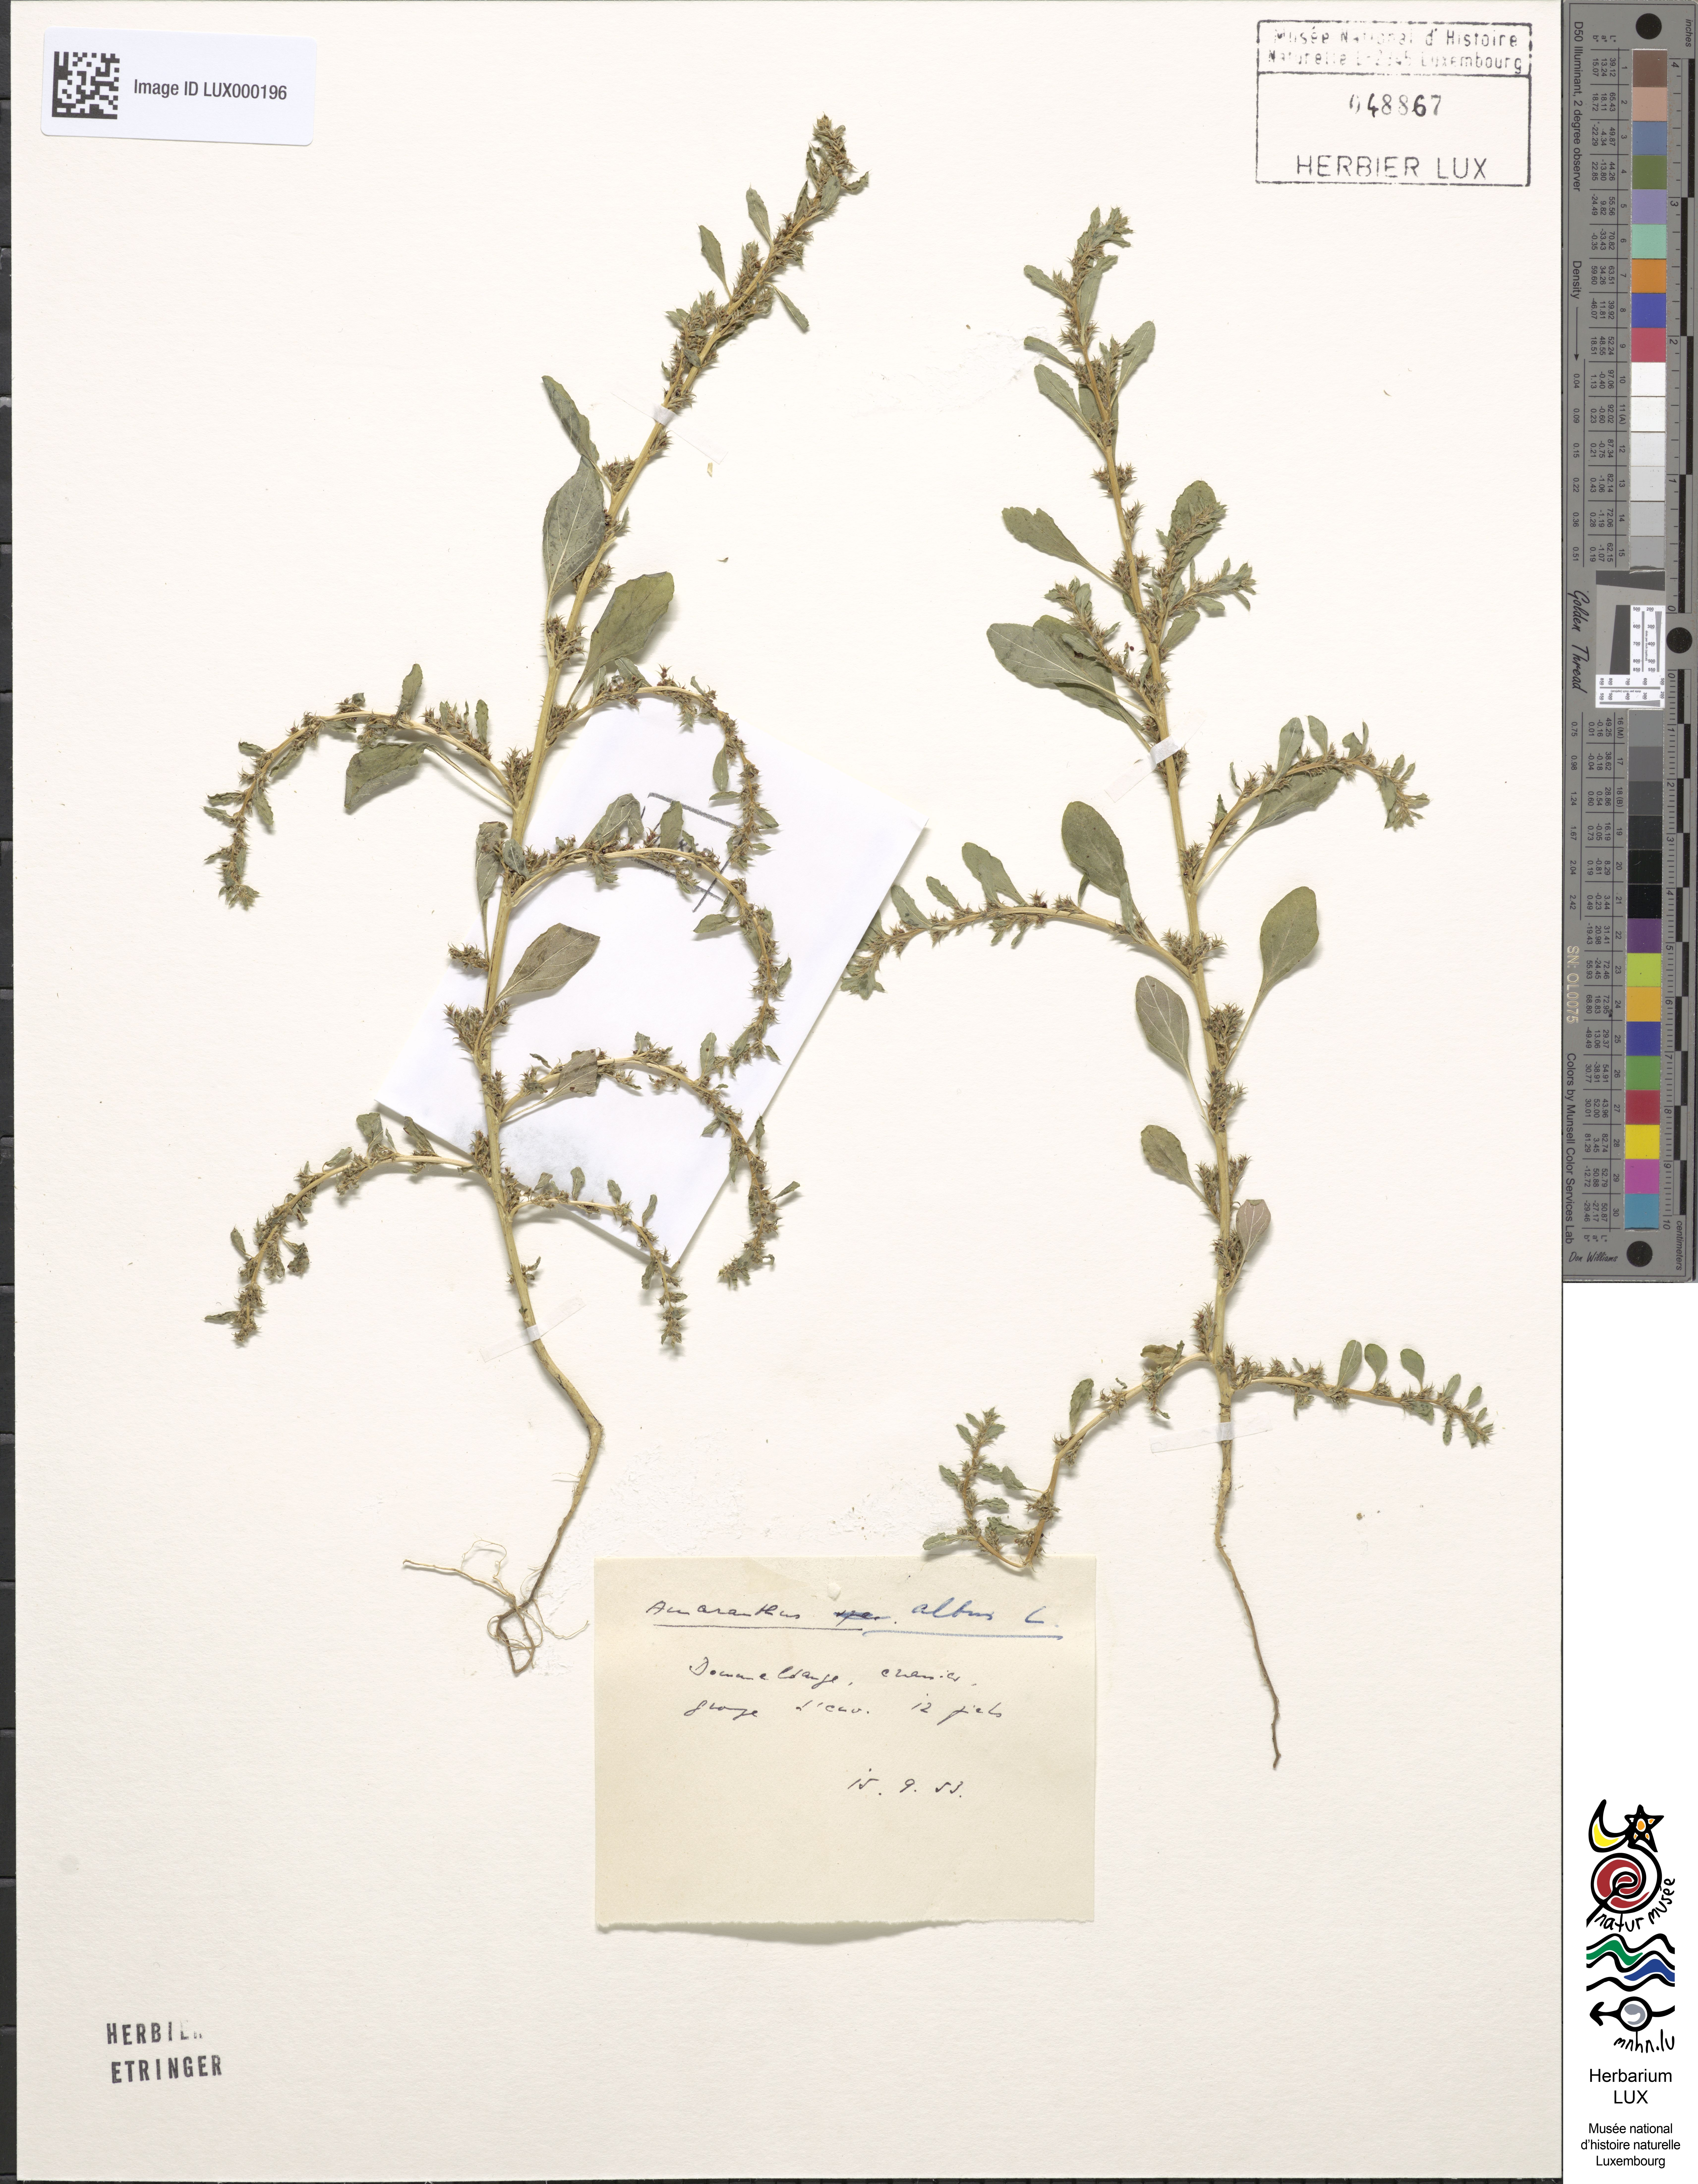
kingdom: Plantae
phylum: Tracheophyta
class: Magnoliopsida
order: Caryophyllales
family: Amaranthaceae
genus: Amaranthus
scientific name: Amaranthus albus
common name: White pigweed
